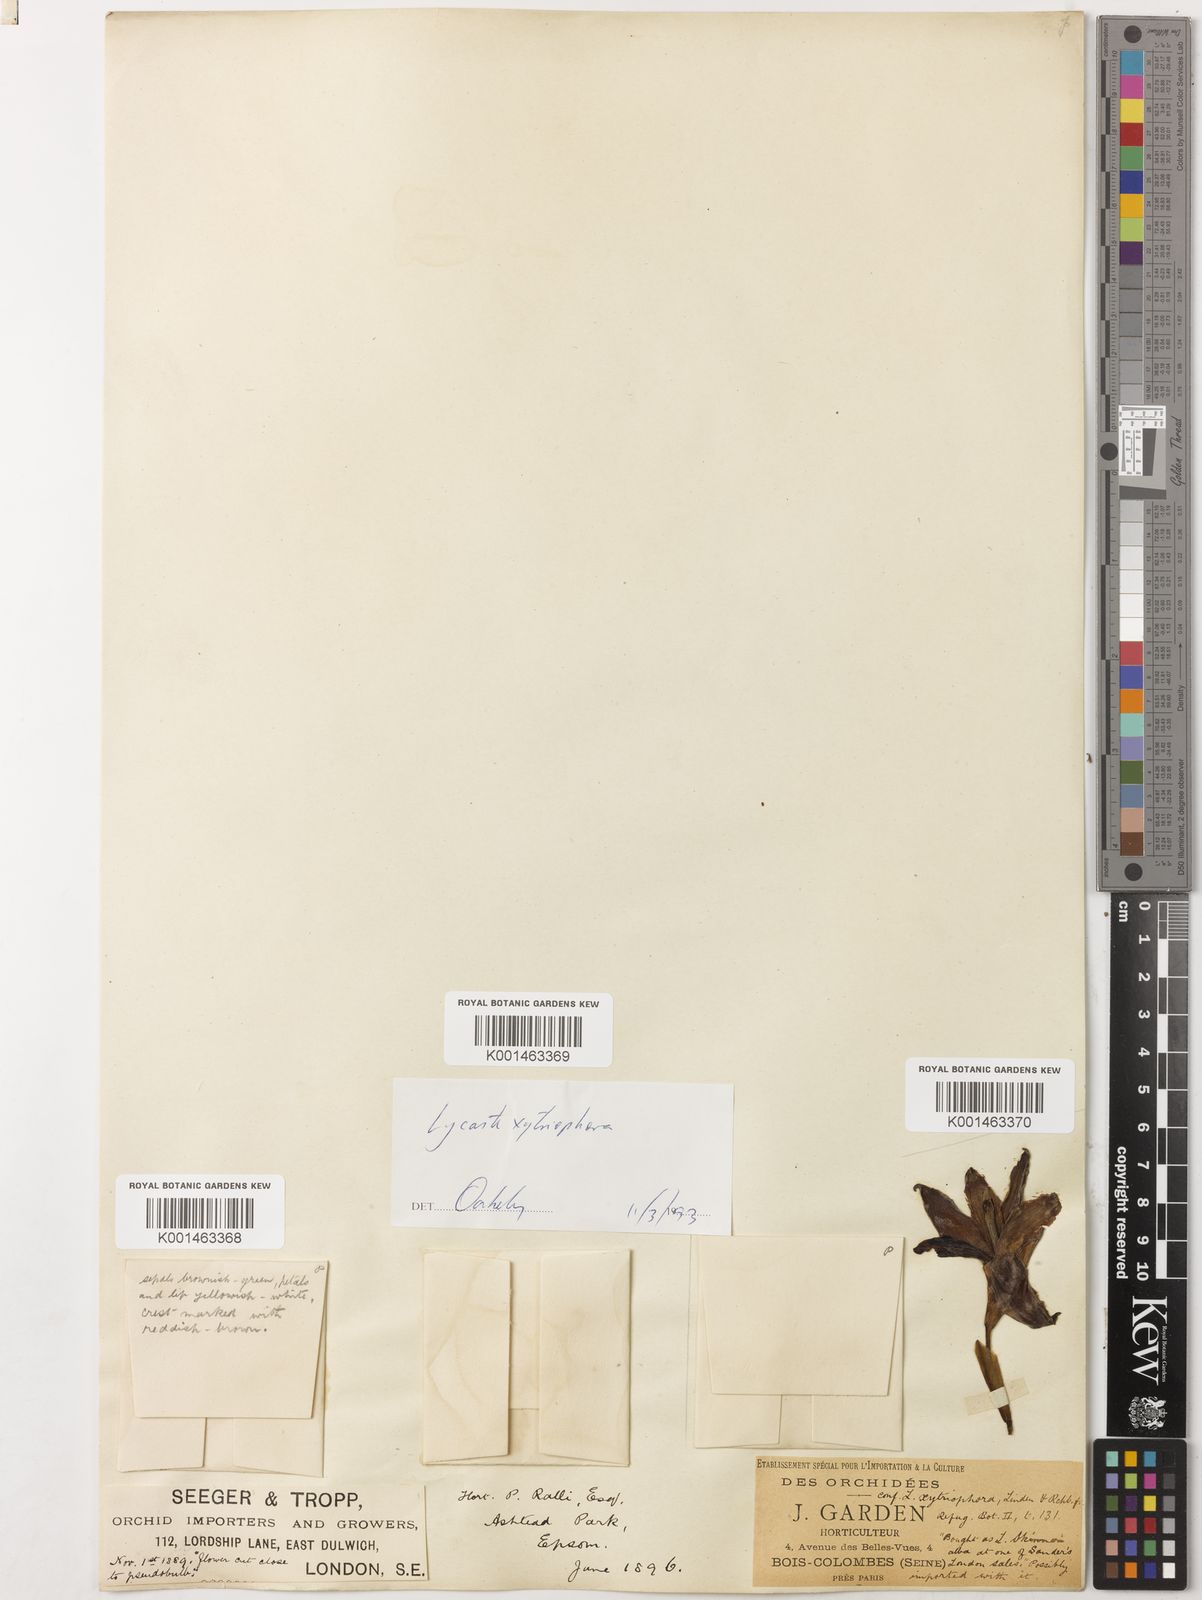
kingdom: Plantae
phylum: Tracheophyta
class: Liliopsida
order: Asparagales
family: Orchidaceae
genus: Lycaste
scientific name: Lycaste xytriophora
